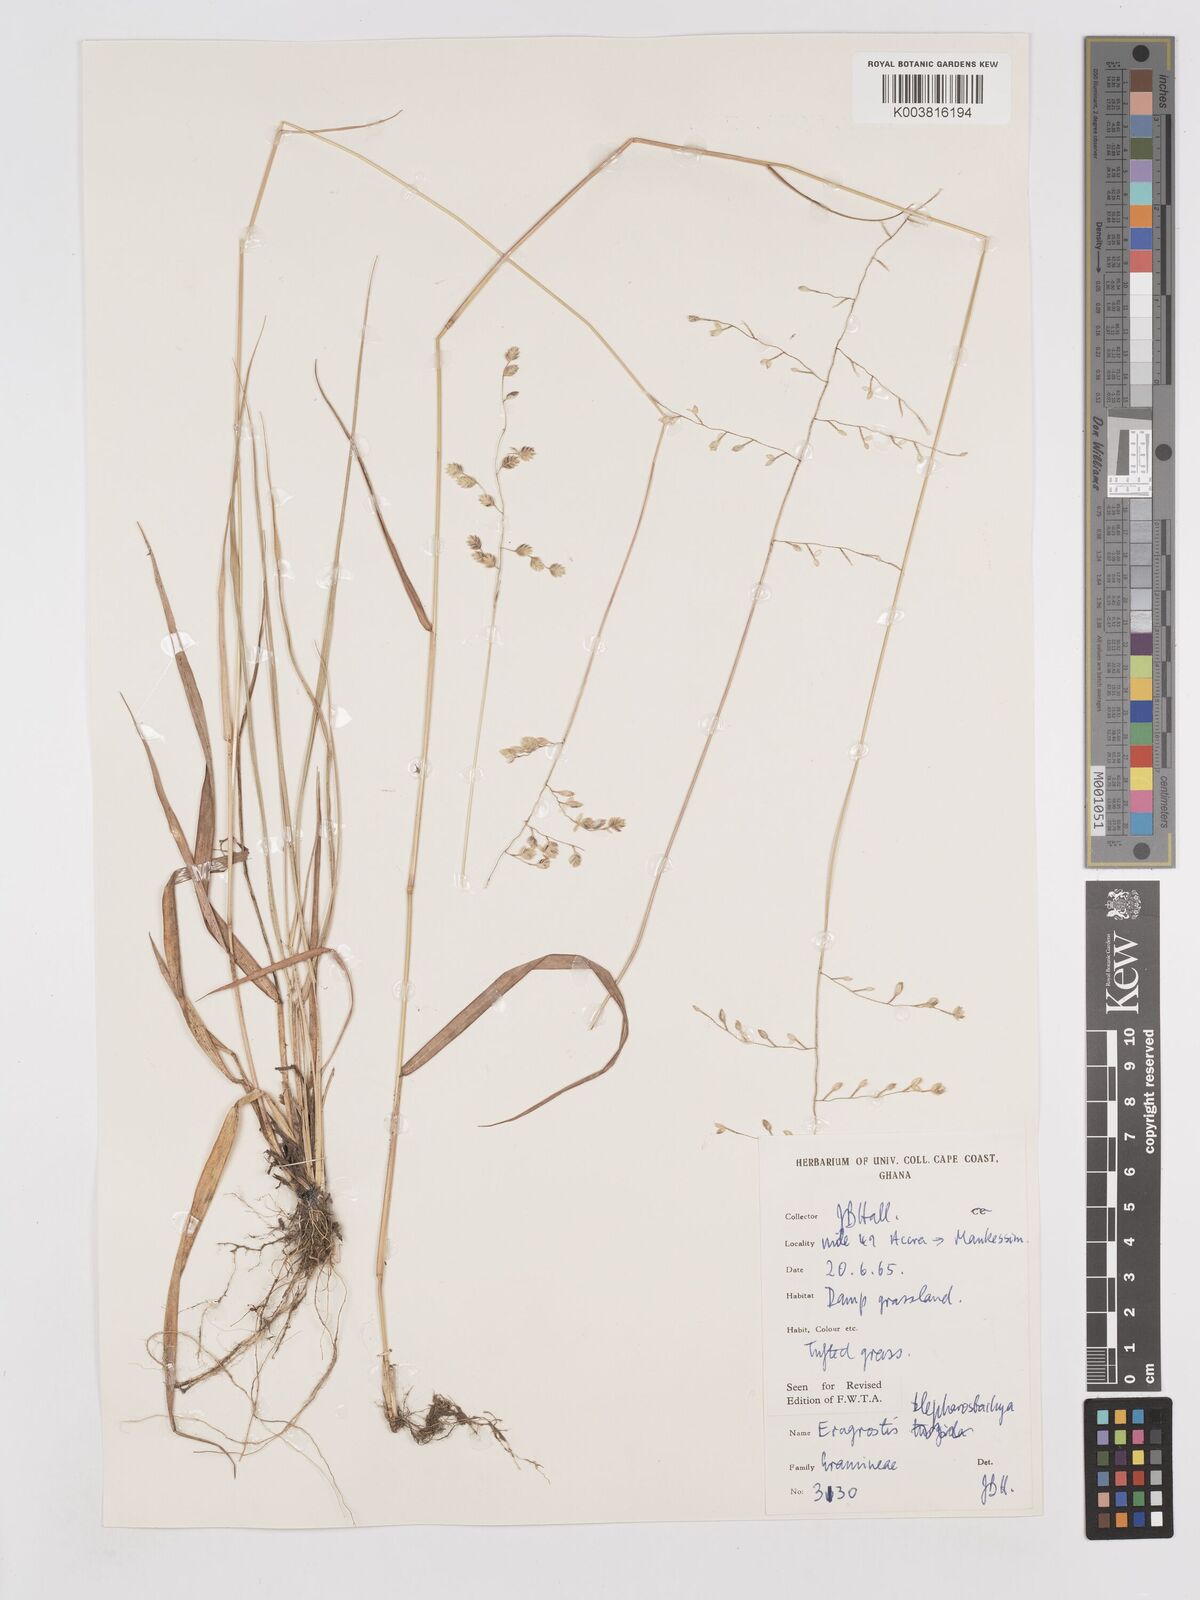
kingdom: Plantae
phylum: Tracheophyta
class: Liliopsida
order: Poales
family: Poaceae
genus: Eragrostis
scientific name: Eragrostis blepharostachya
